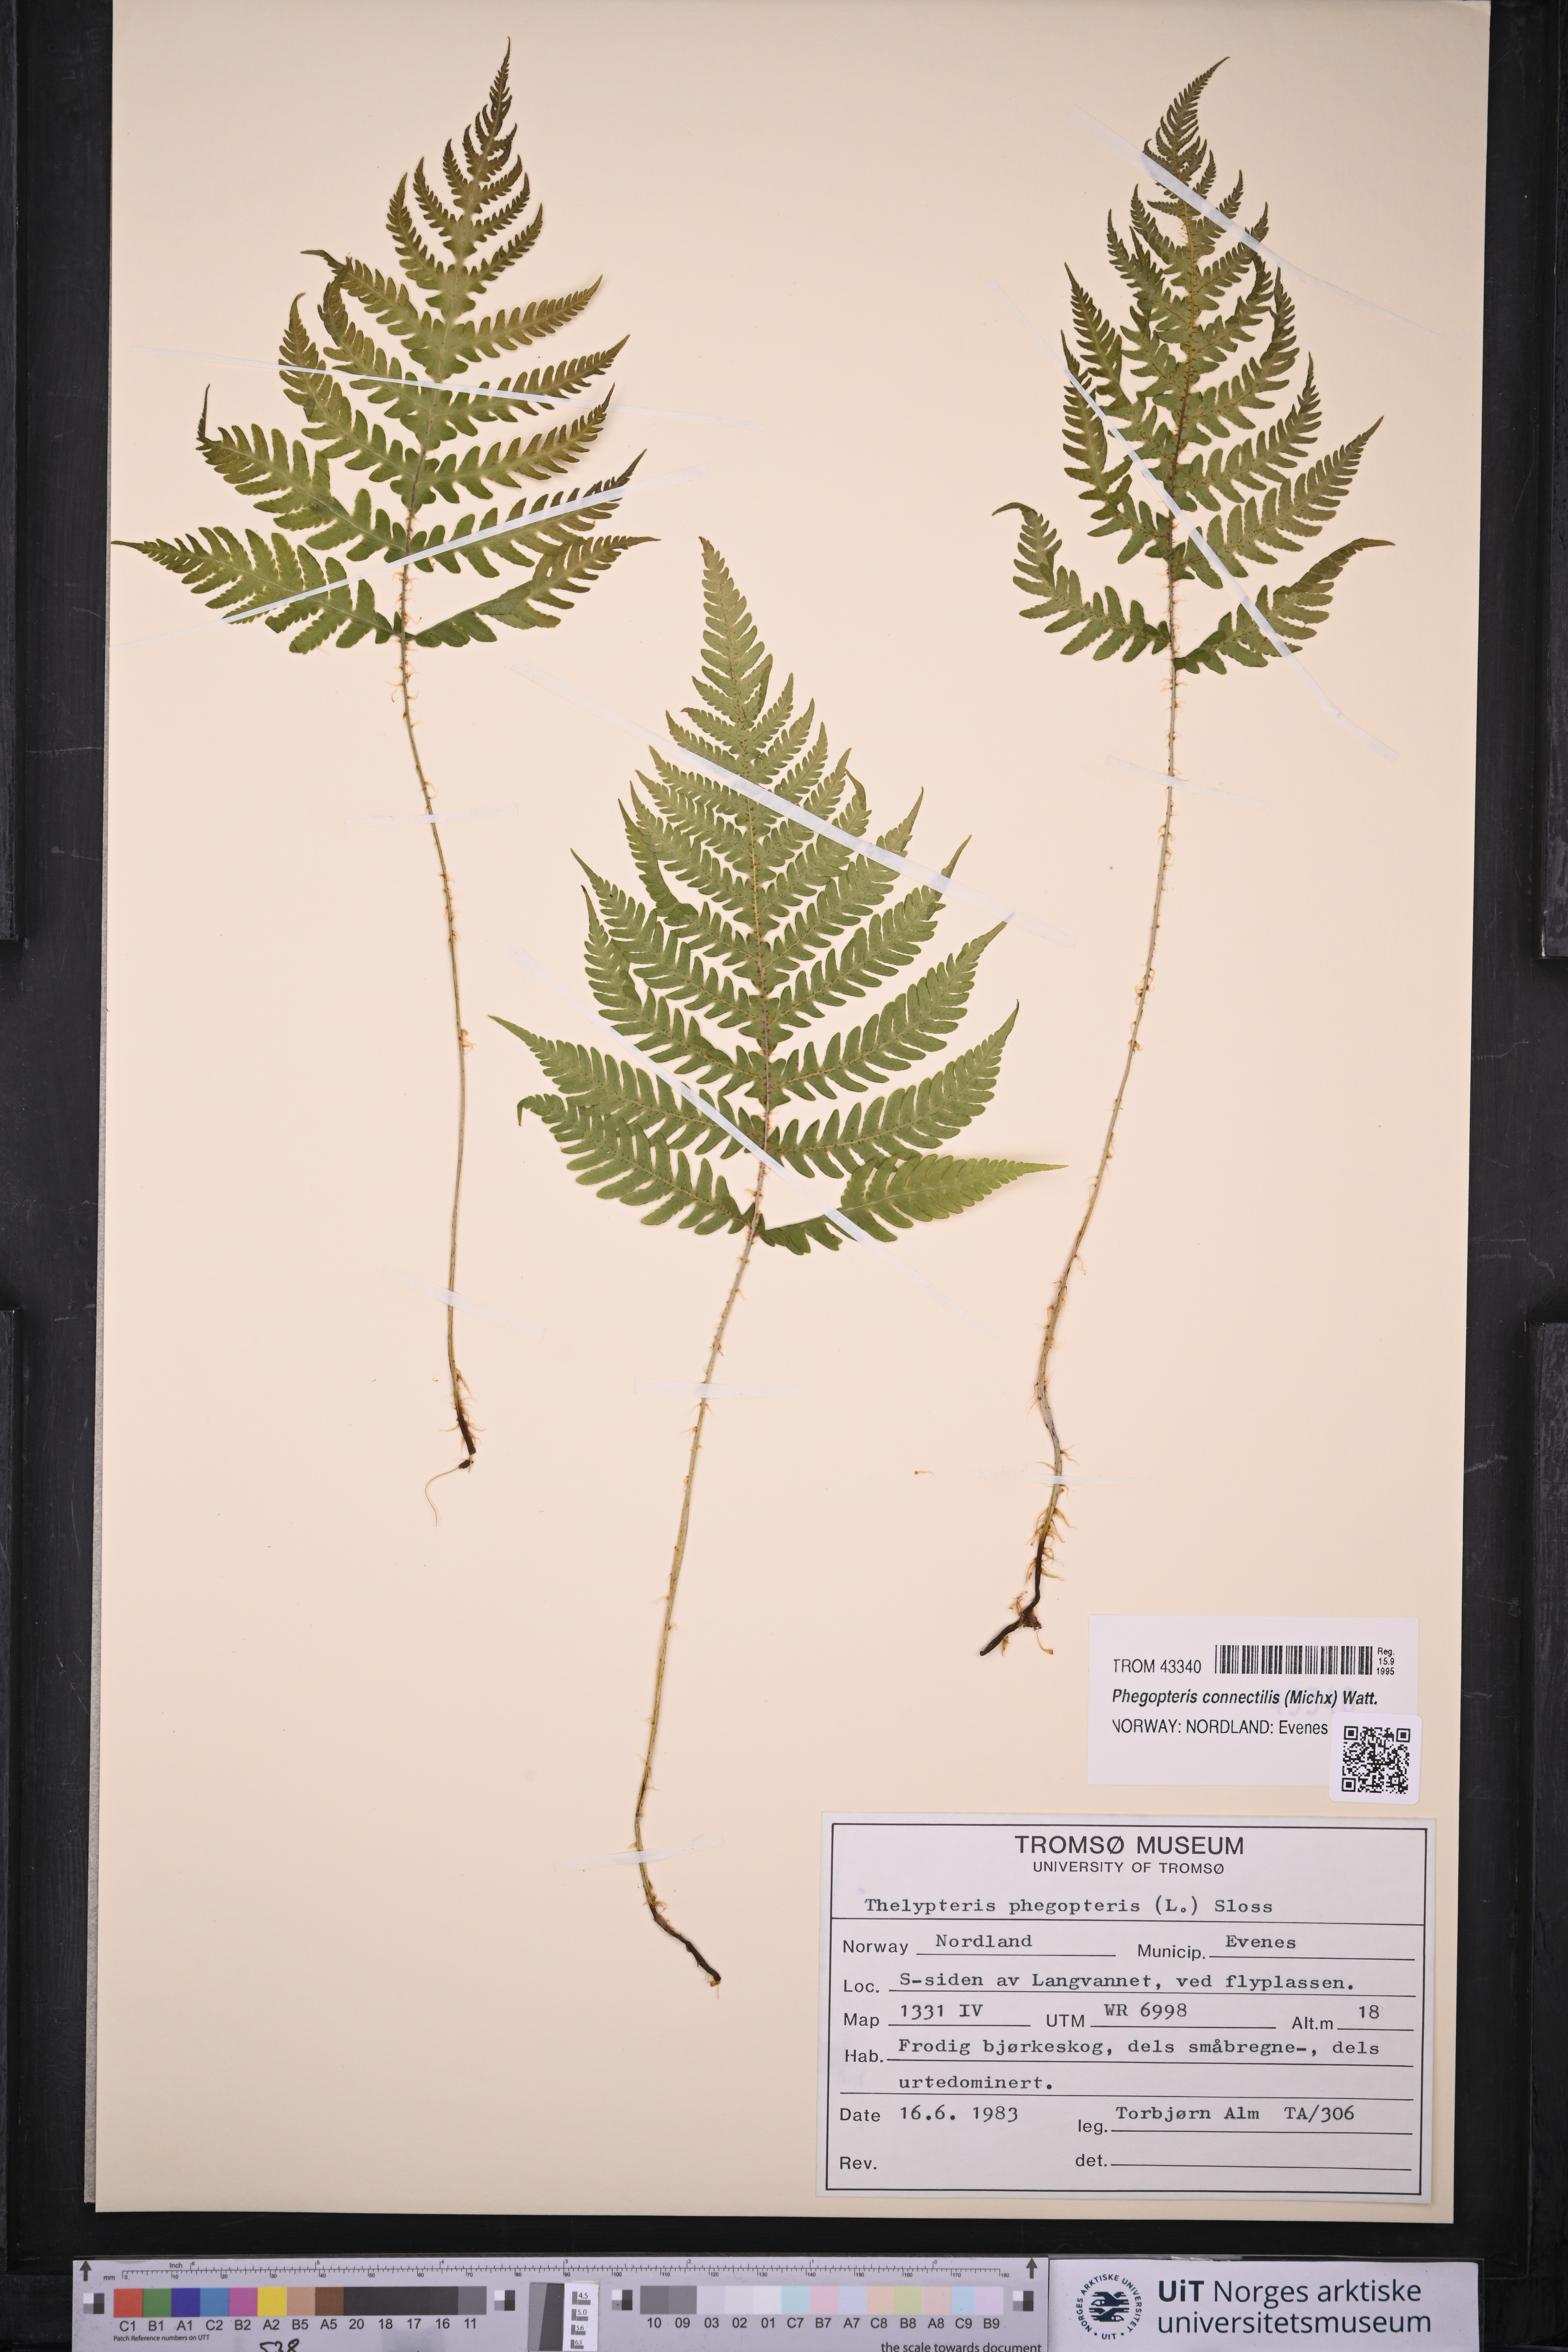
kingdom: Plantae
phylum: Tracheophyta
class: Polypodiopsida
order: Polypodiales
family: Thelypteridaceae
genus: Phegopteris
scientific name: Phegopteris connectilis
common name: Beech fern
